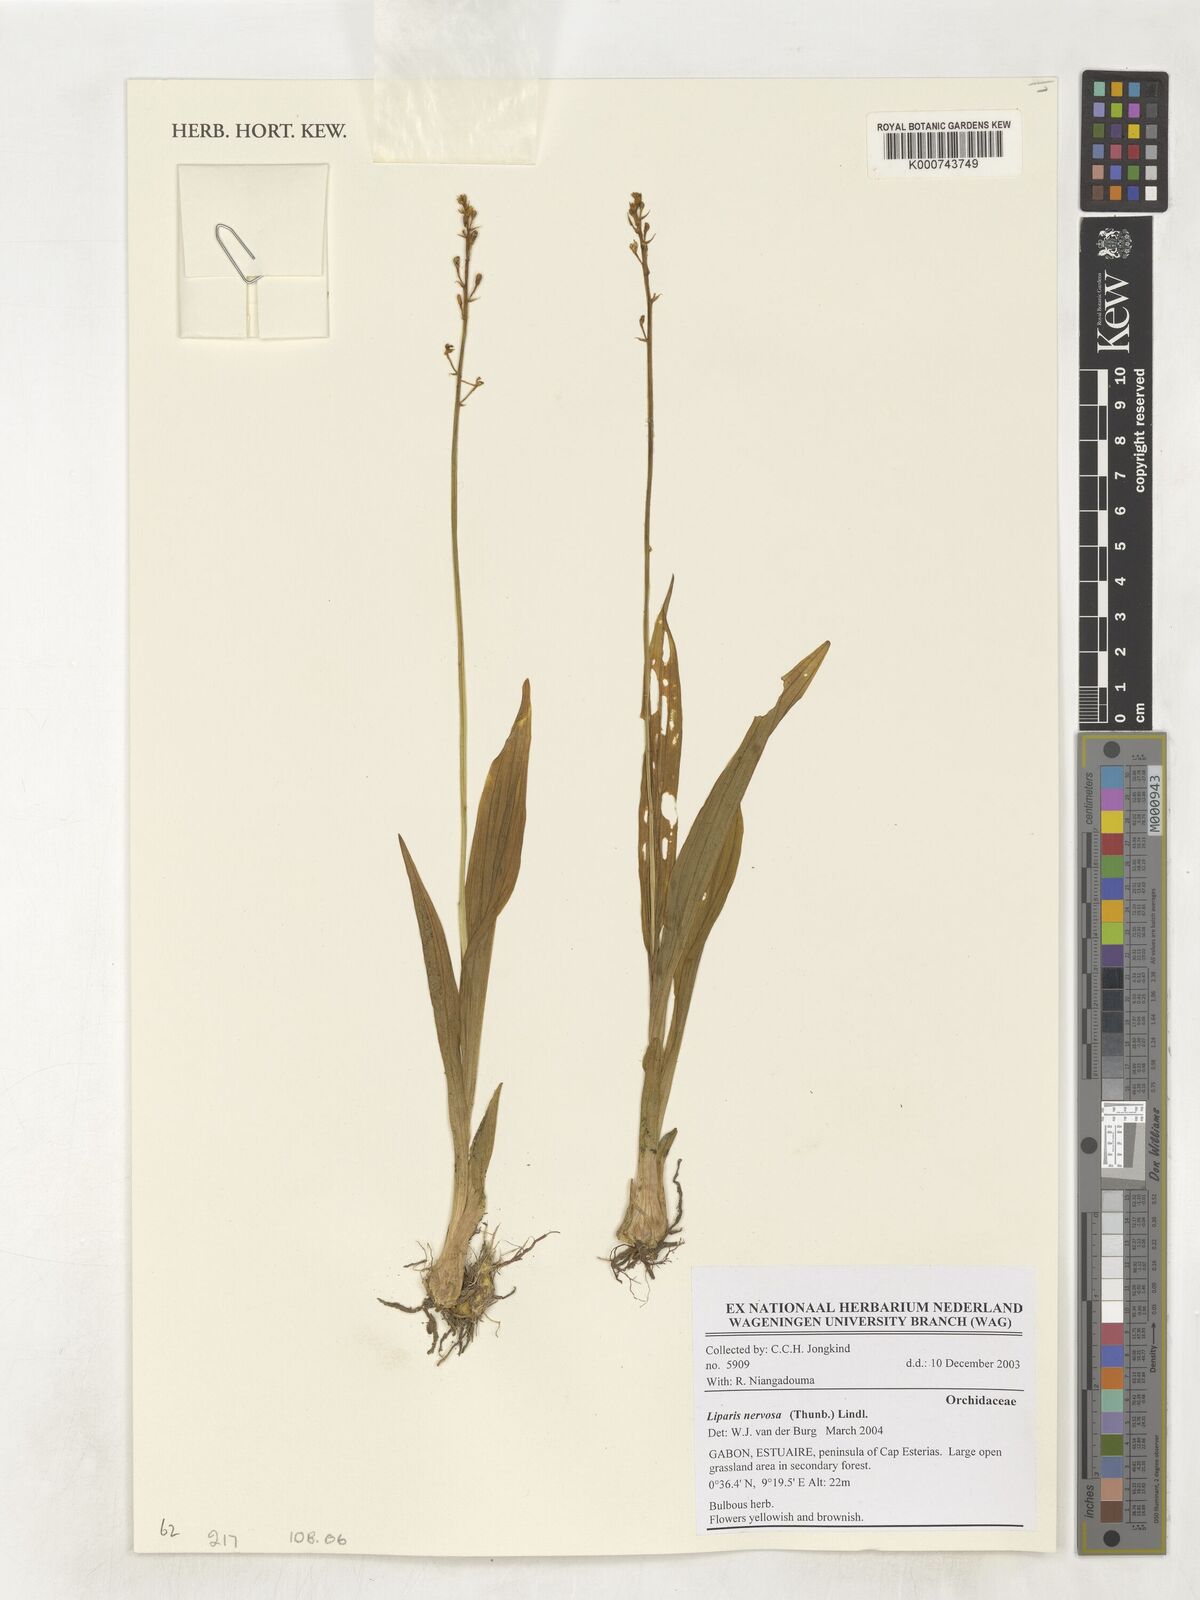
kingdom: Plantae
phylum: Tracheophyta
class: Liliopsida
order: Asparagales
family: Orchidaceae
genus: Liparis
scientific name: Liparis nervosa
